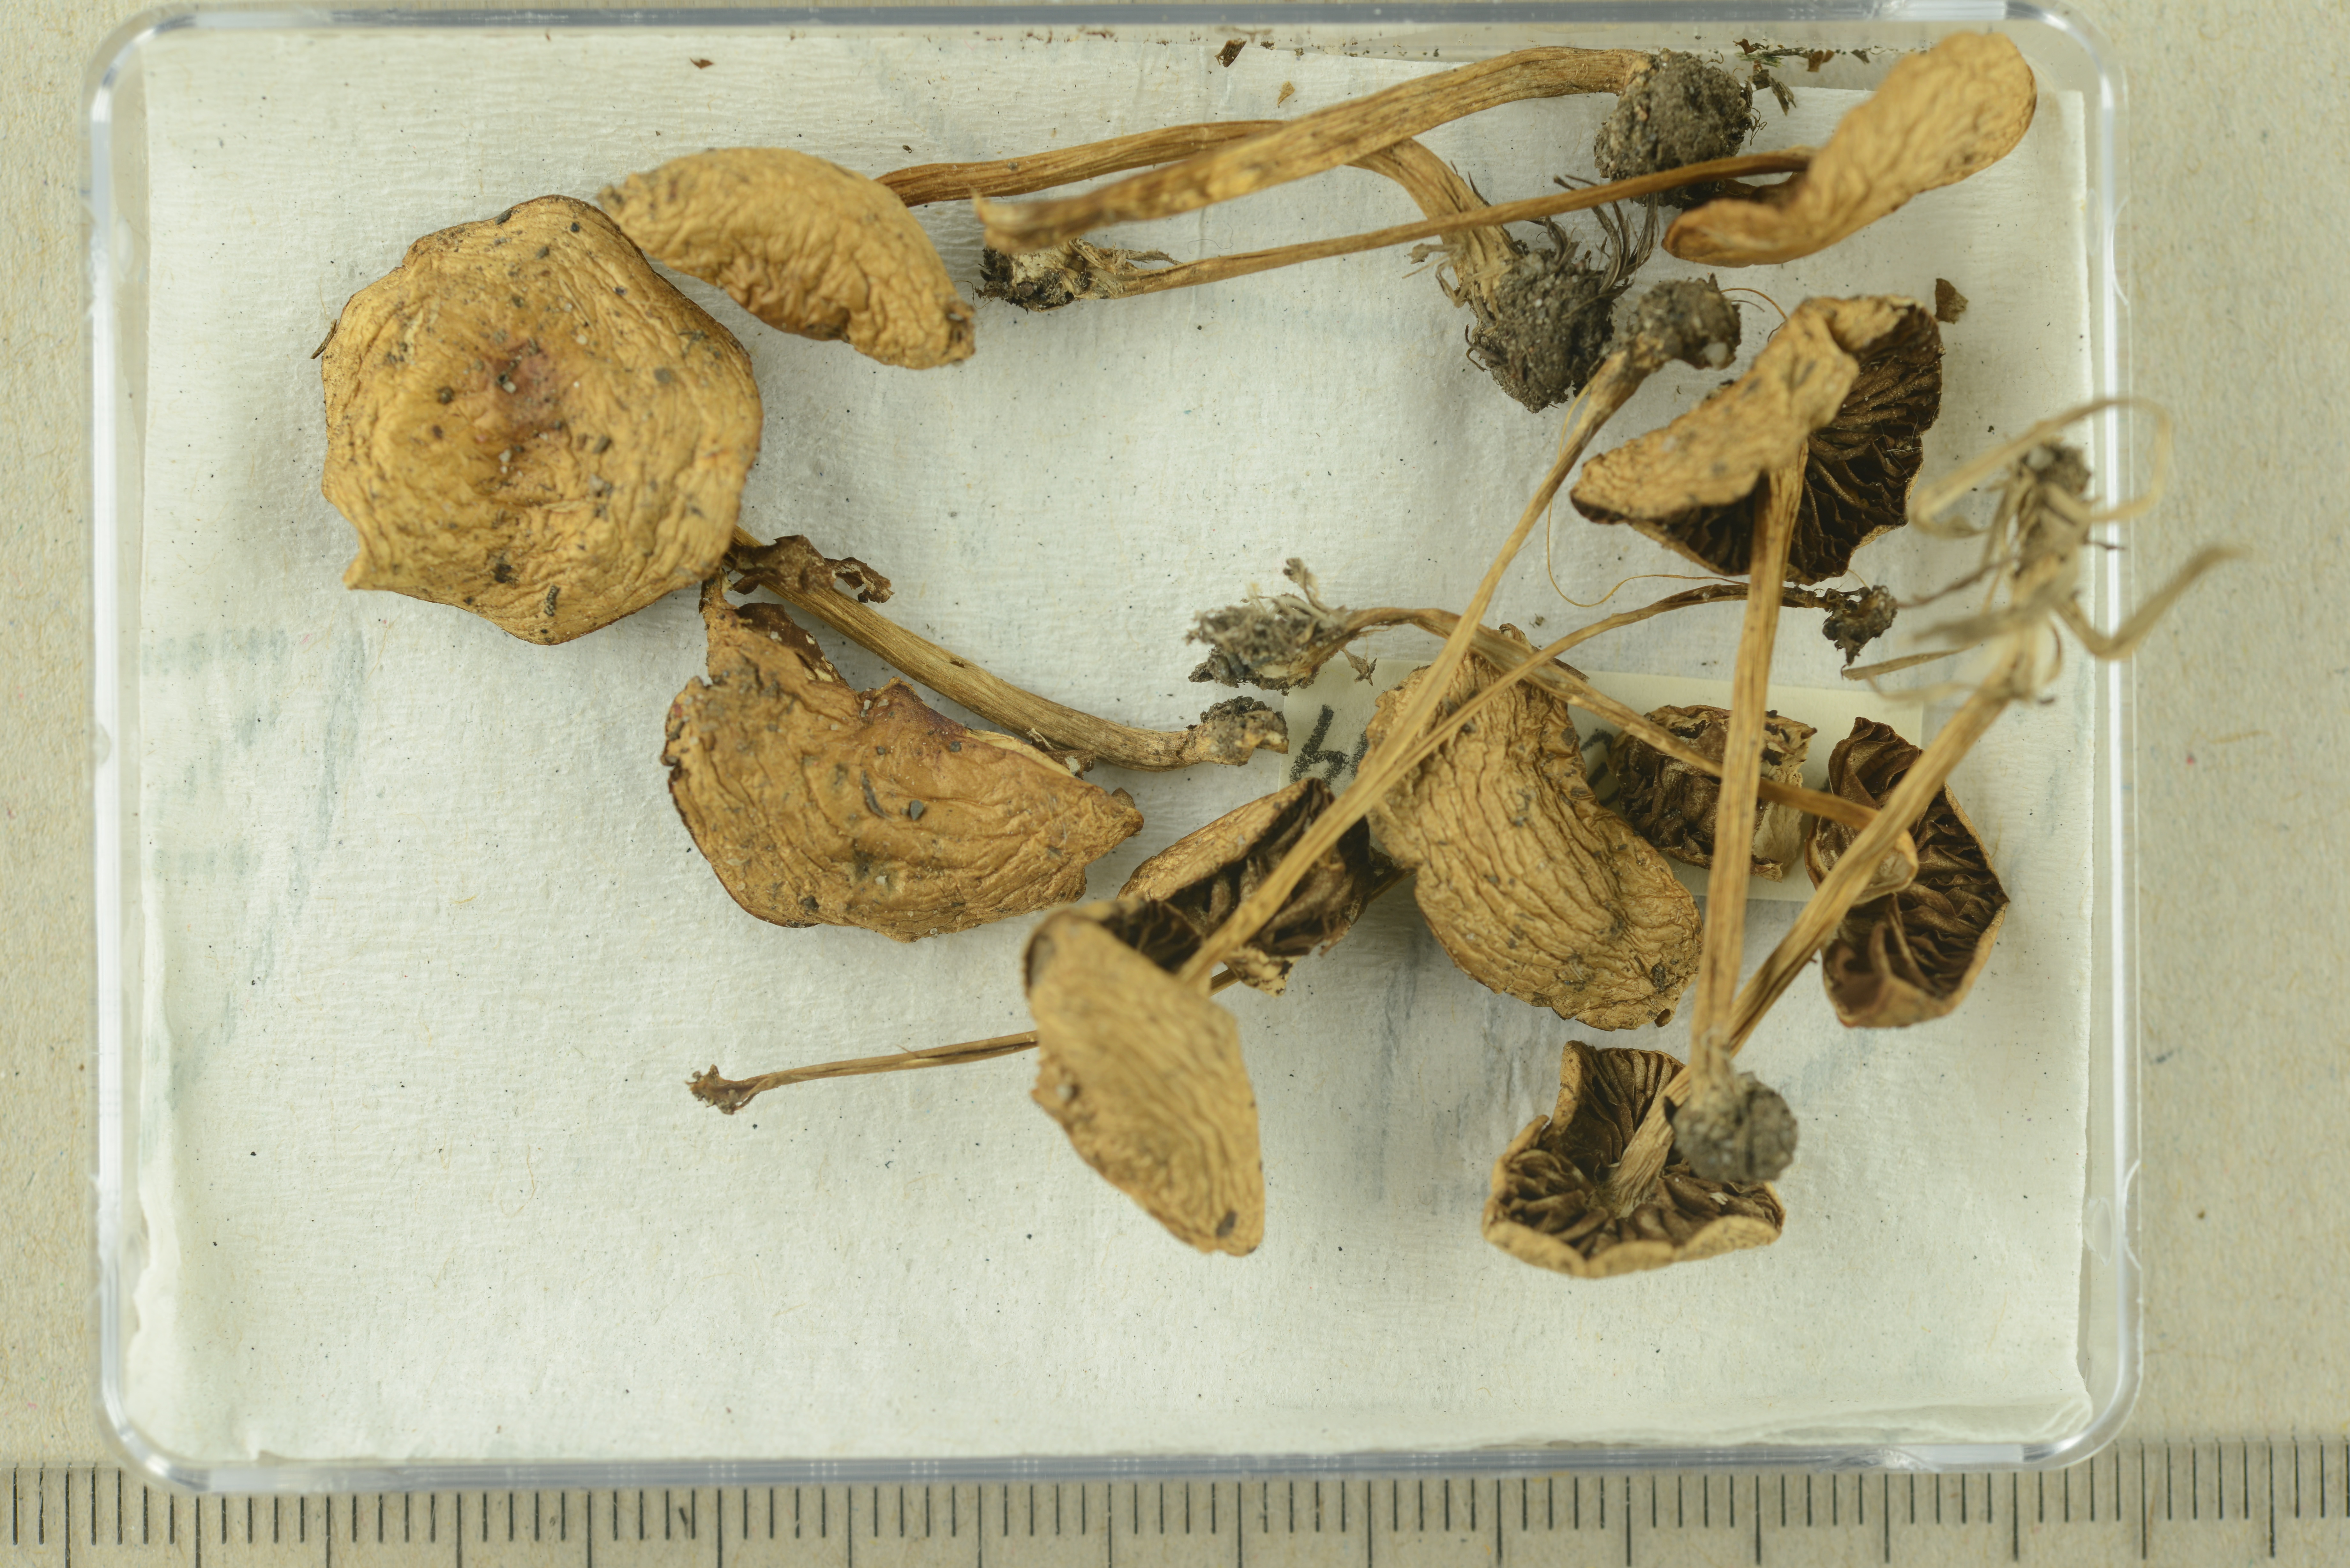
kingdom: Fungi
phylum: Basidiomycota
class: Agaricomycetes
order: Agaricales
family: Strophariaceae
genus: Agrocybe
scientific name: Agrocybe
